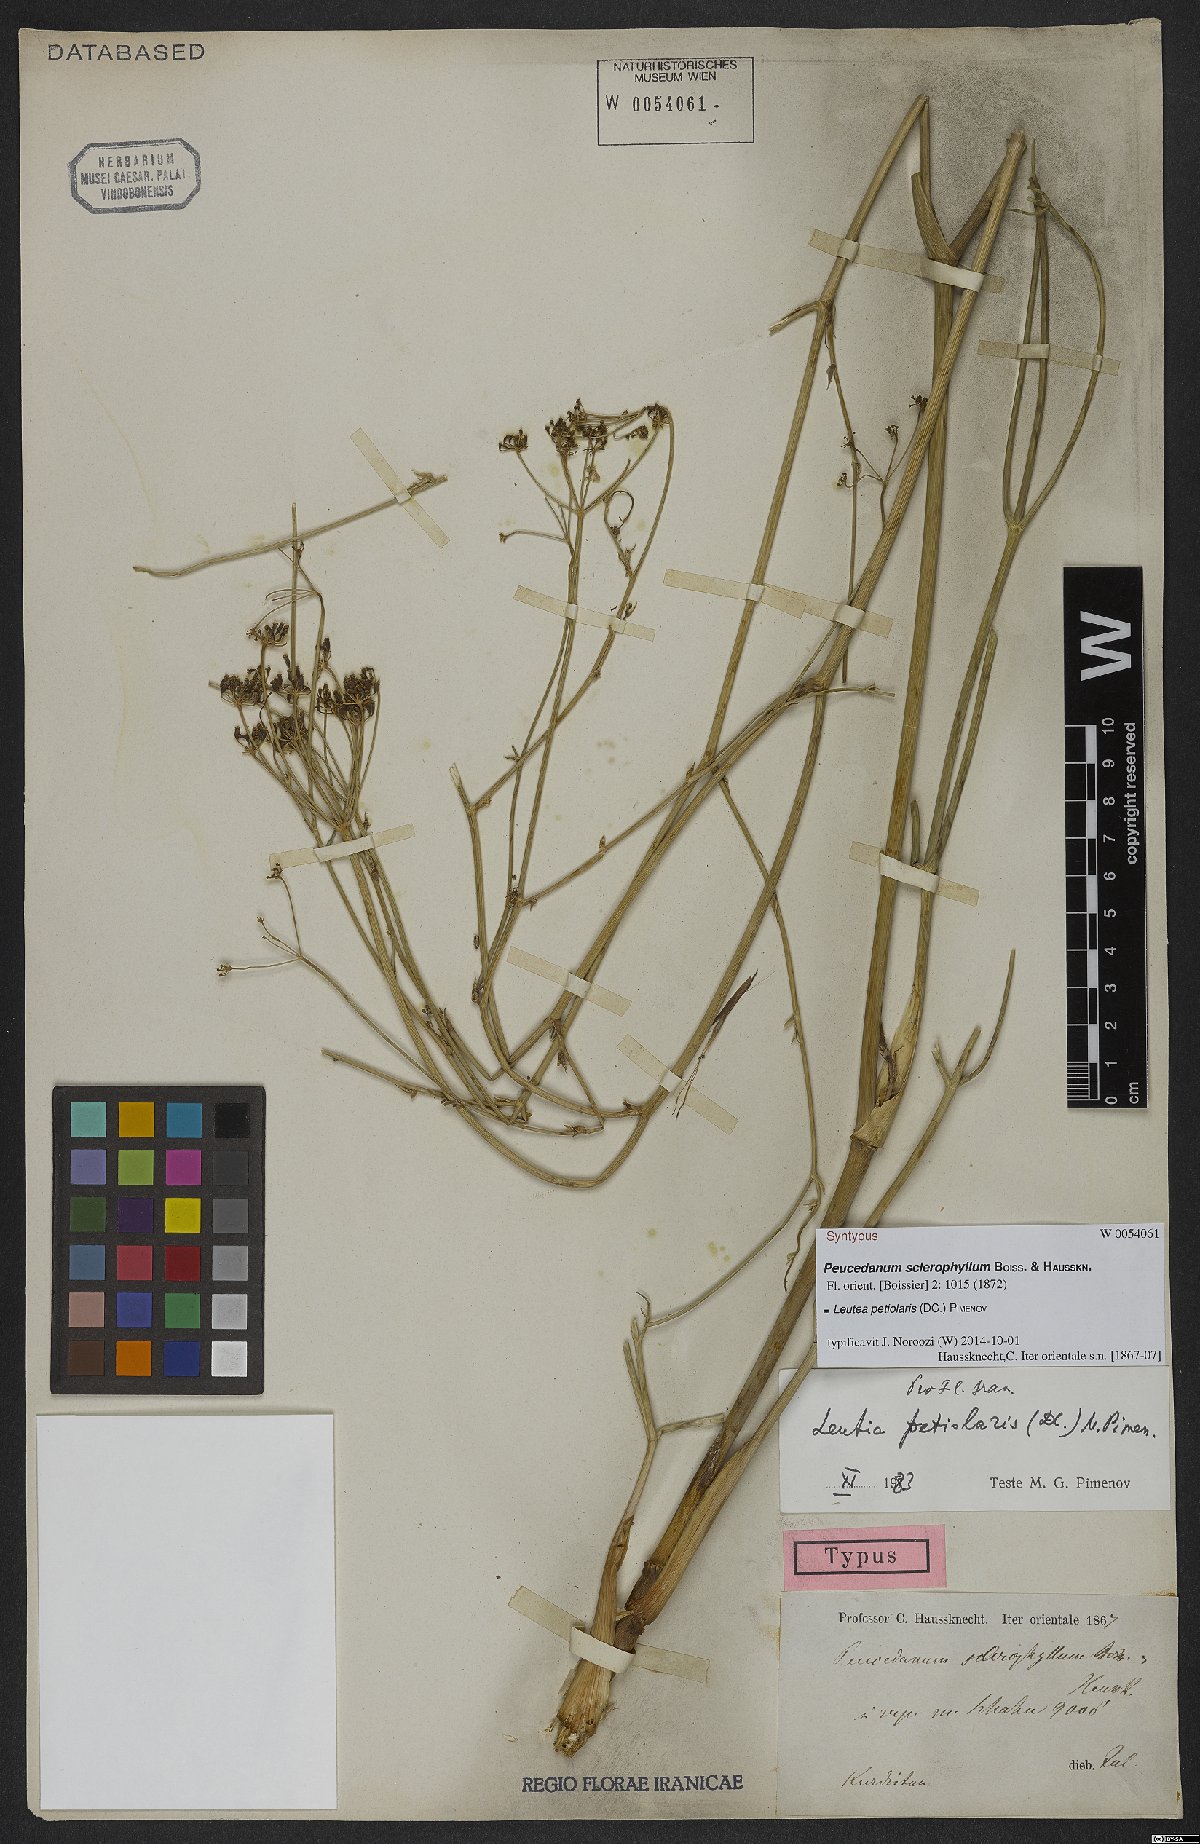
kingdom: Plantae
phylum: Tracheophyta
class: Magnoliopsida
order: Apiales
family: Apiaceae
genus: Leutea
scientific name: Leutea petiolaris
